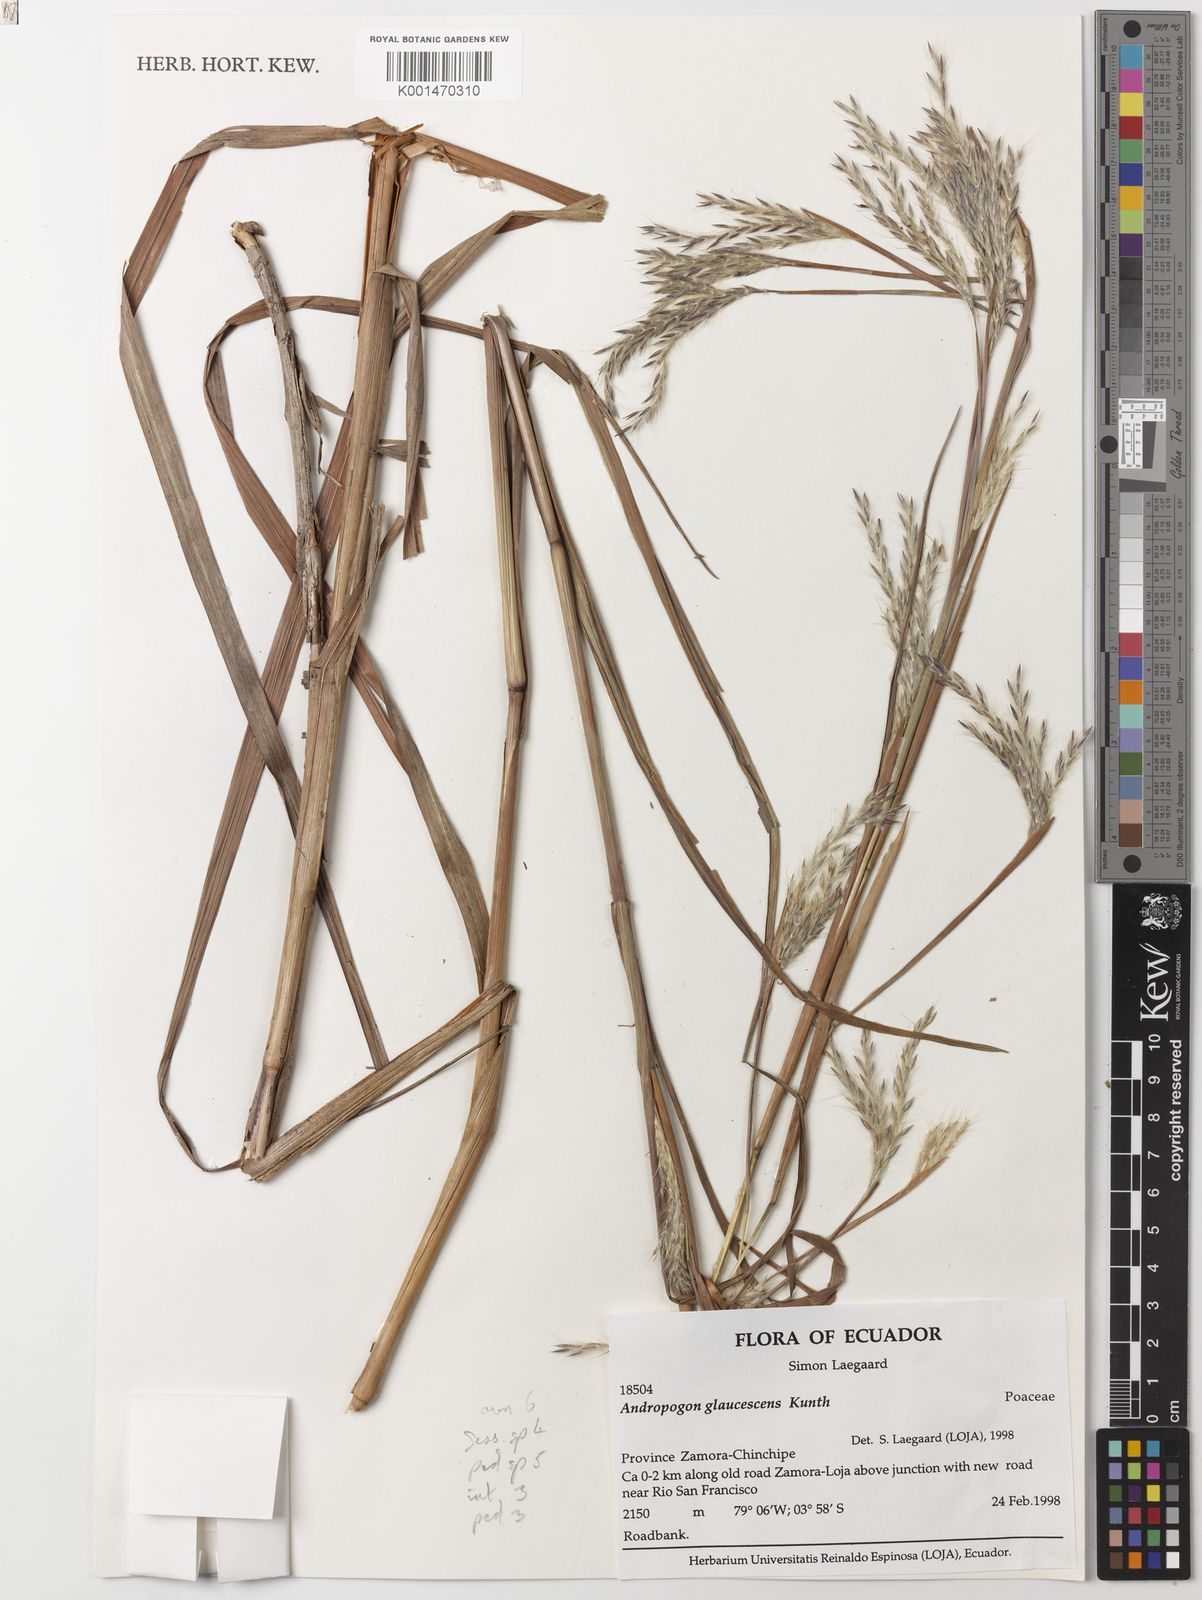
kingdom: Plantae
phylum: Tracheophyta
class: Liliopsida
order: Poales
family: Poaceae
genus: Andropogon
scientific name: Andropogon glaucescens
